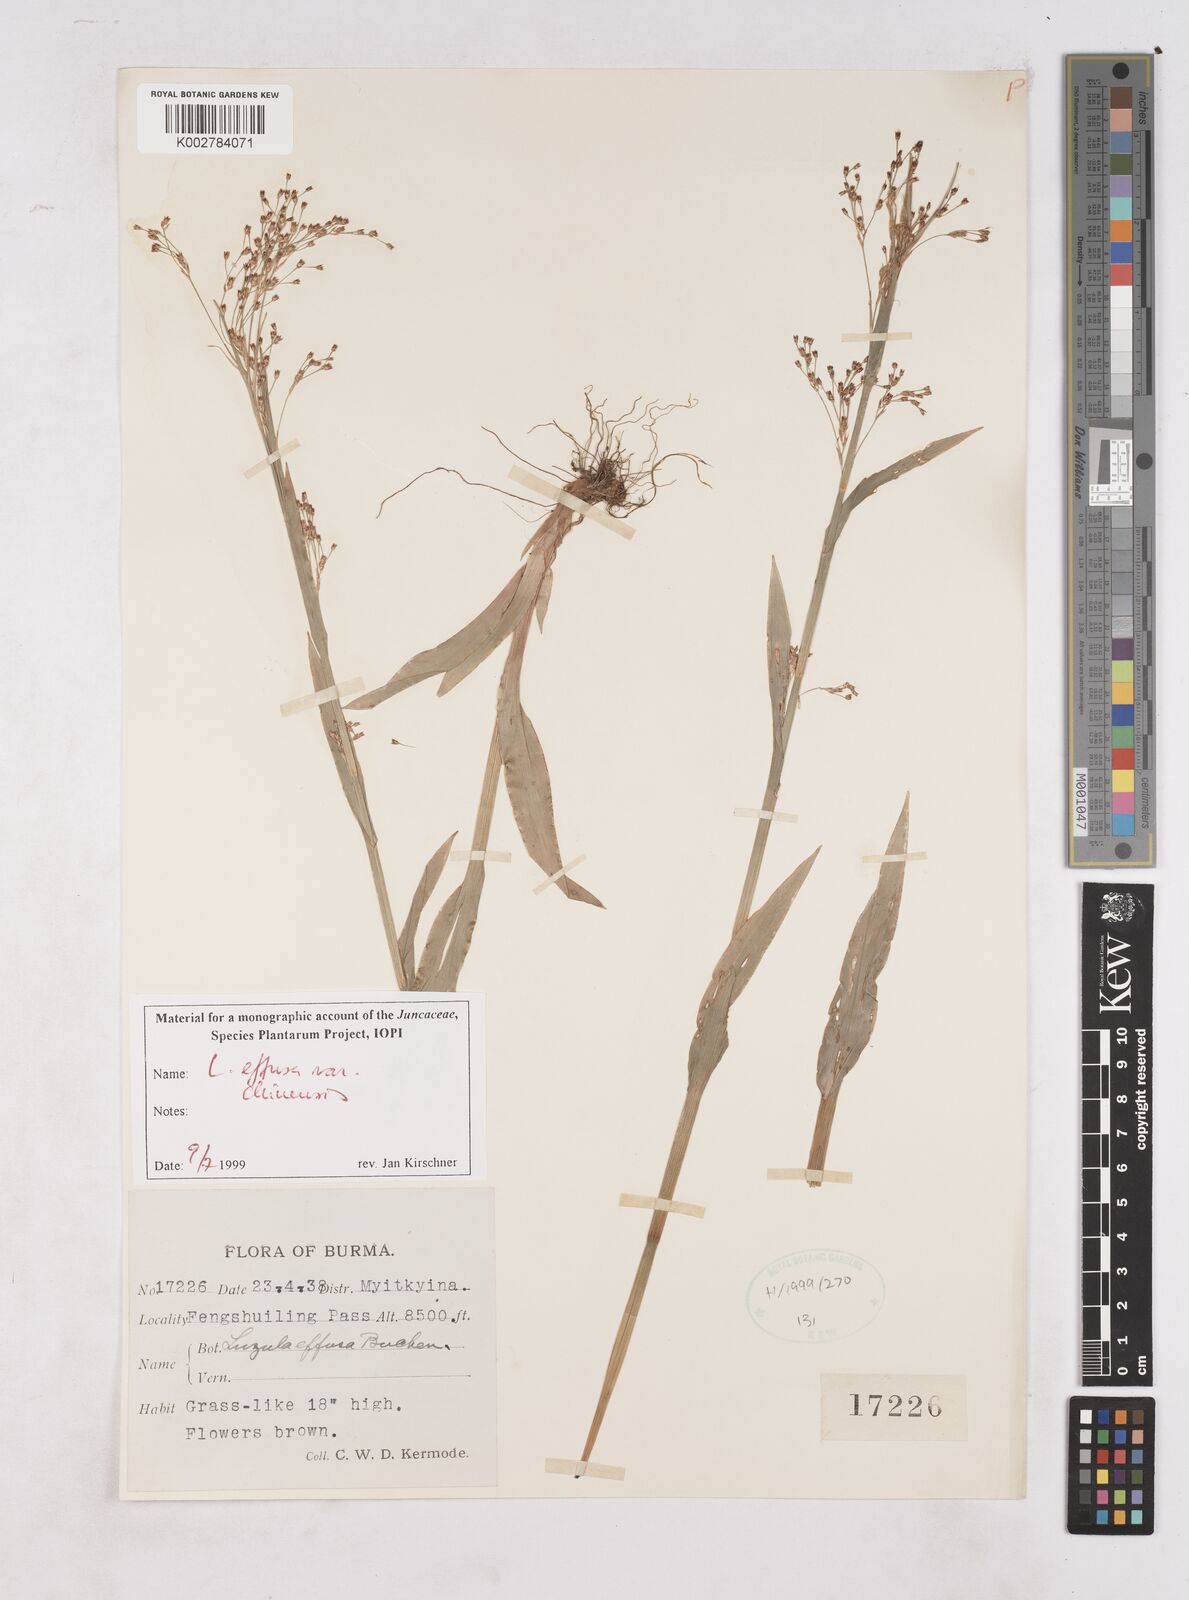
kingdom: Plantae
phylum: Tracheophyta
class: Liliopsida
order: Poales
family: Juncaceae
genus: Luzula
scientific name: Luzula effusa
